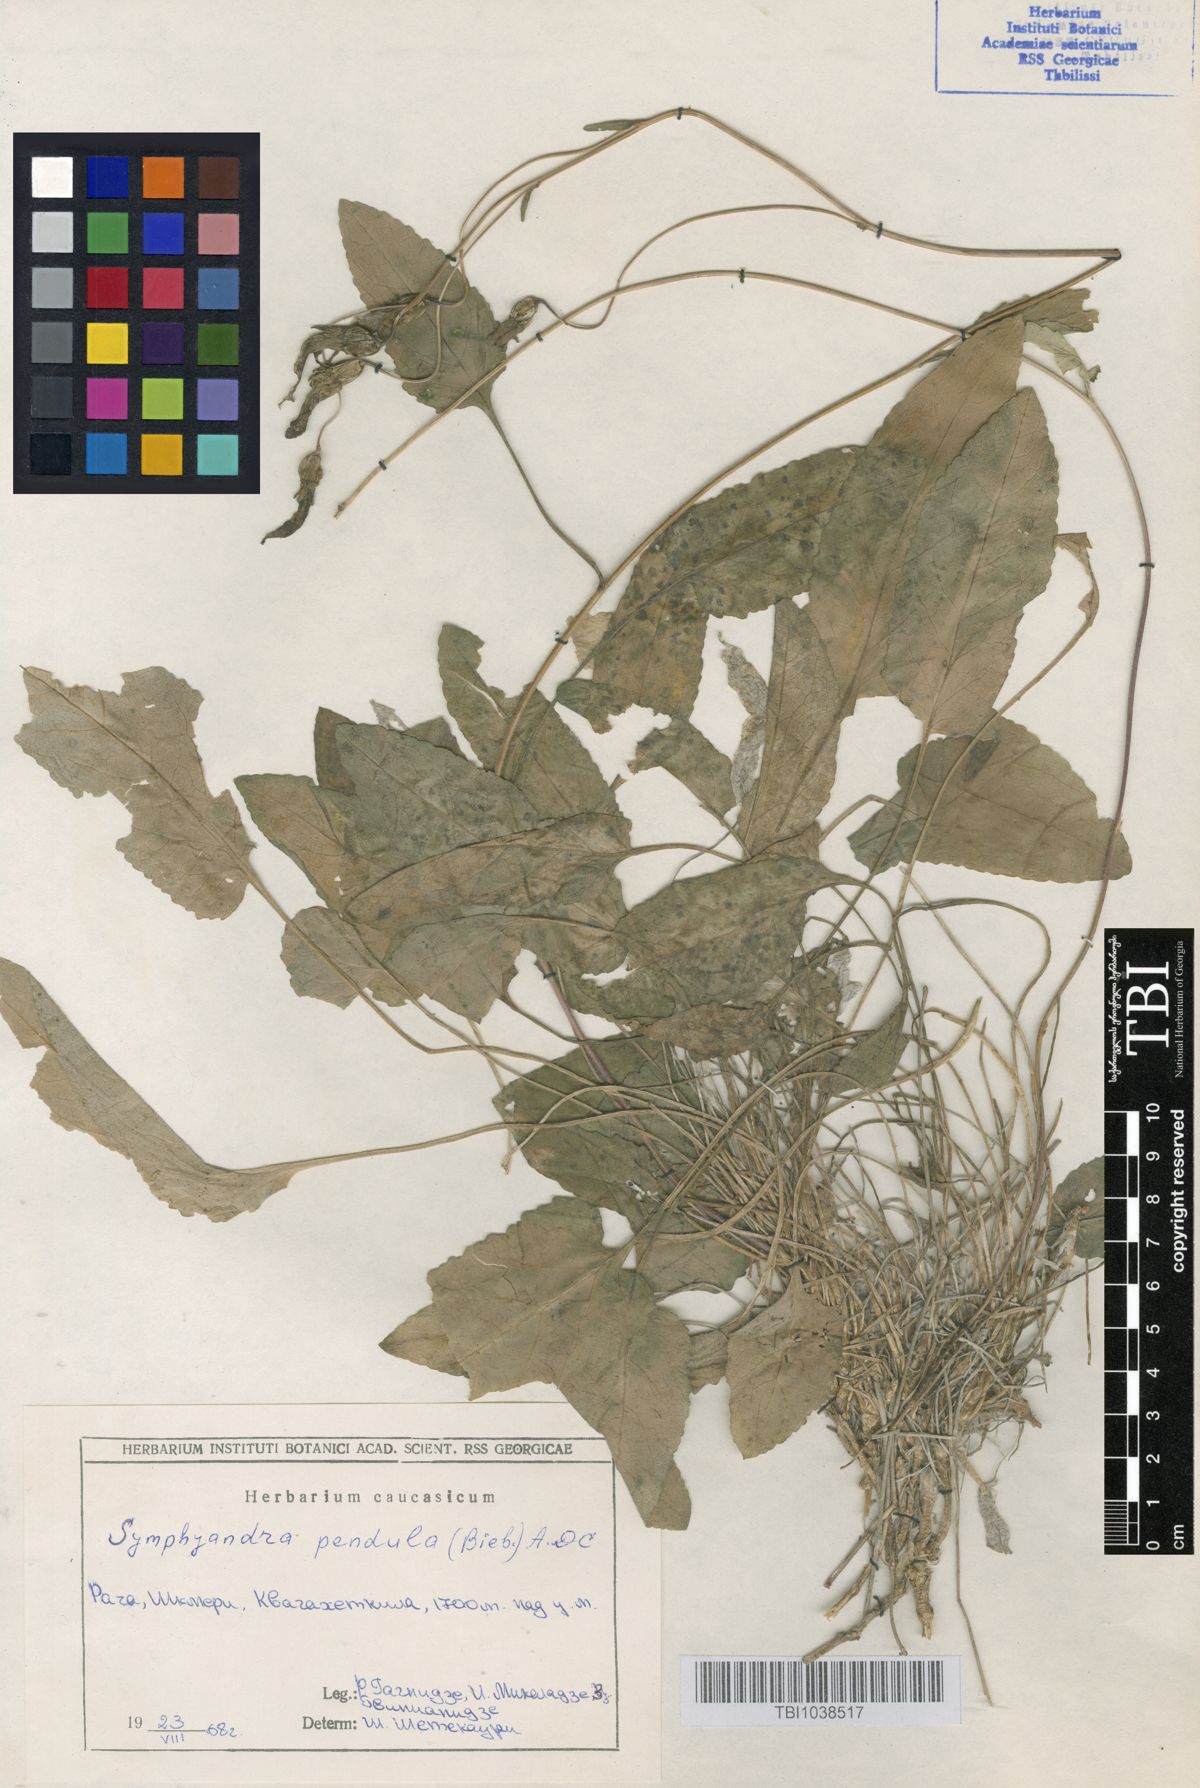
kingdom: Plantae
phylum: Tracheophyta
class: Magnoliopsida
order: Asterales
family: Campanulaceae
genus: Campanula
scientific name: Campanula pendula
